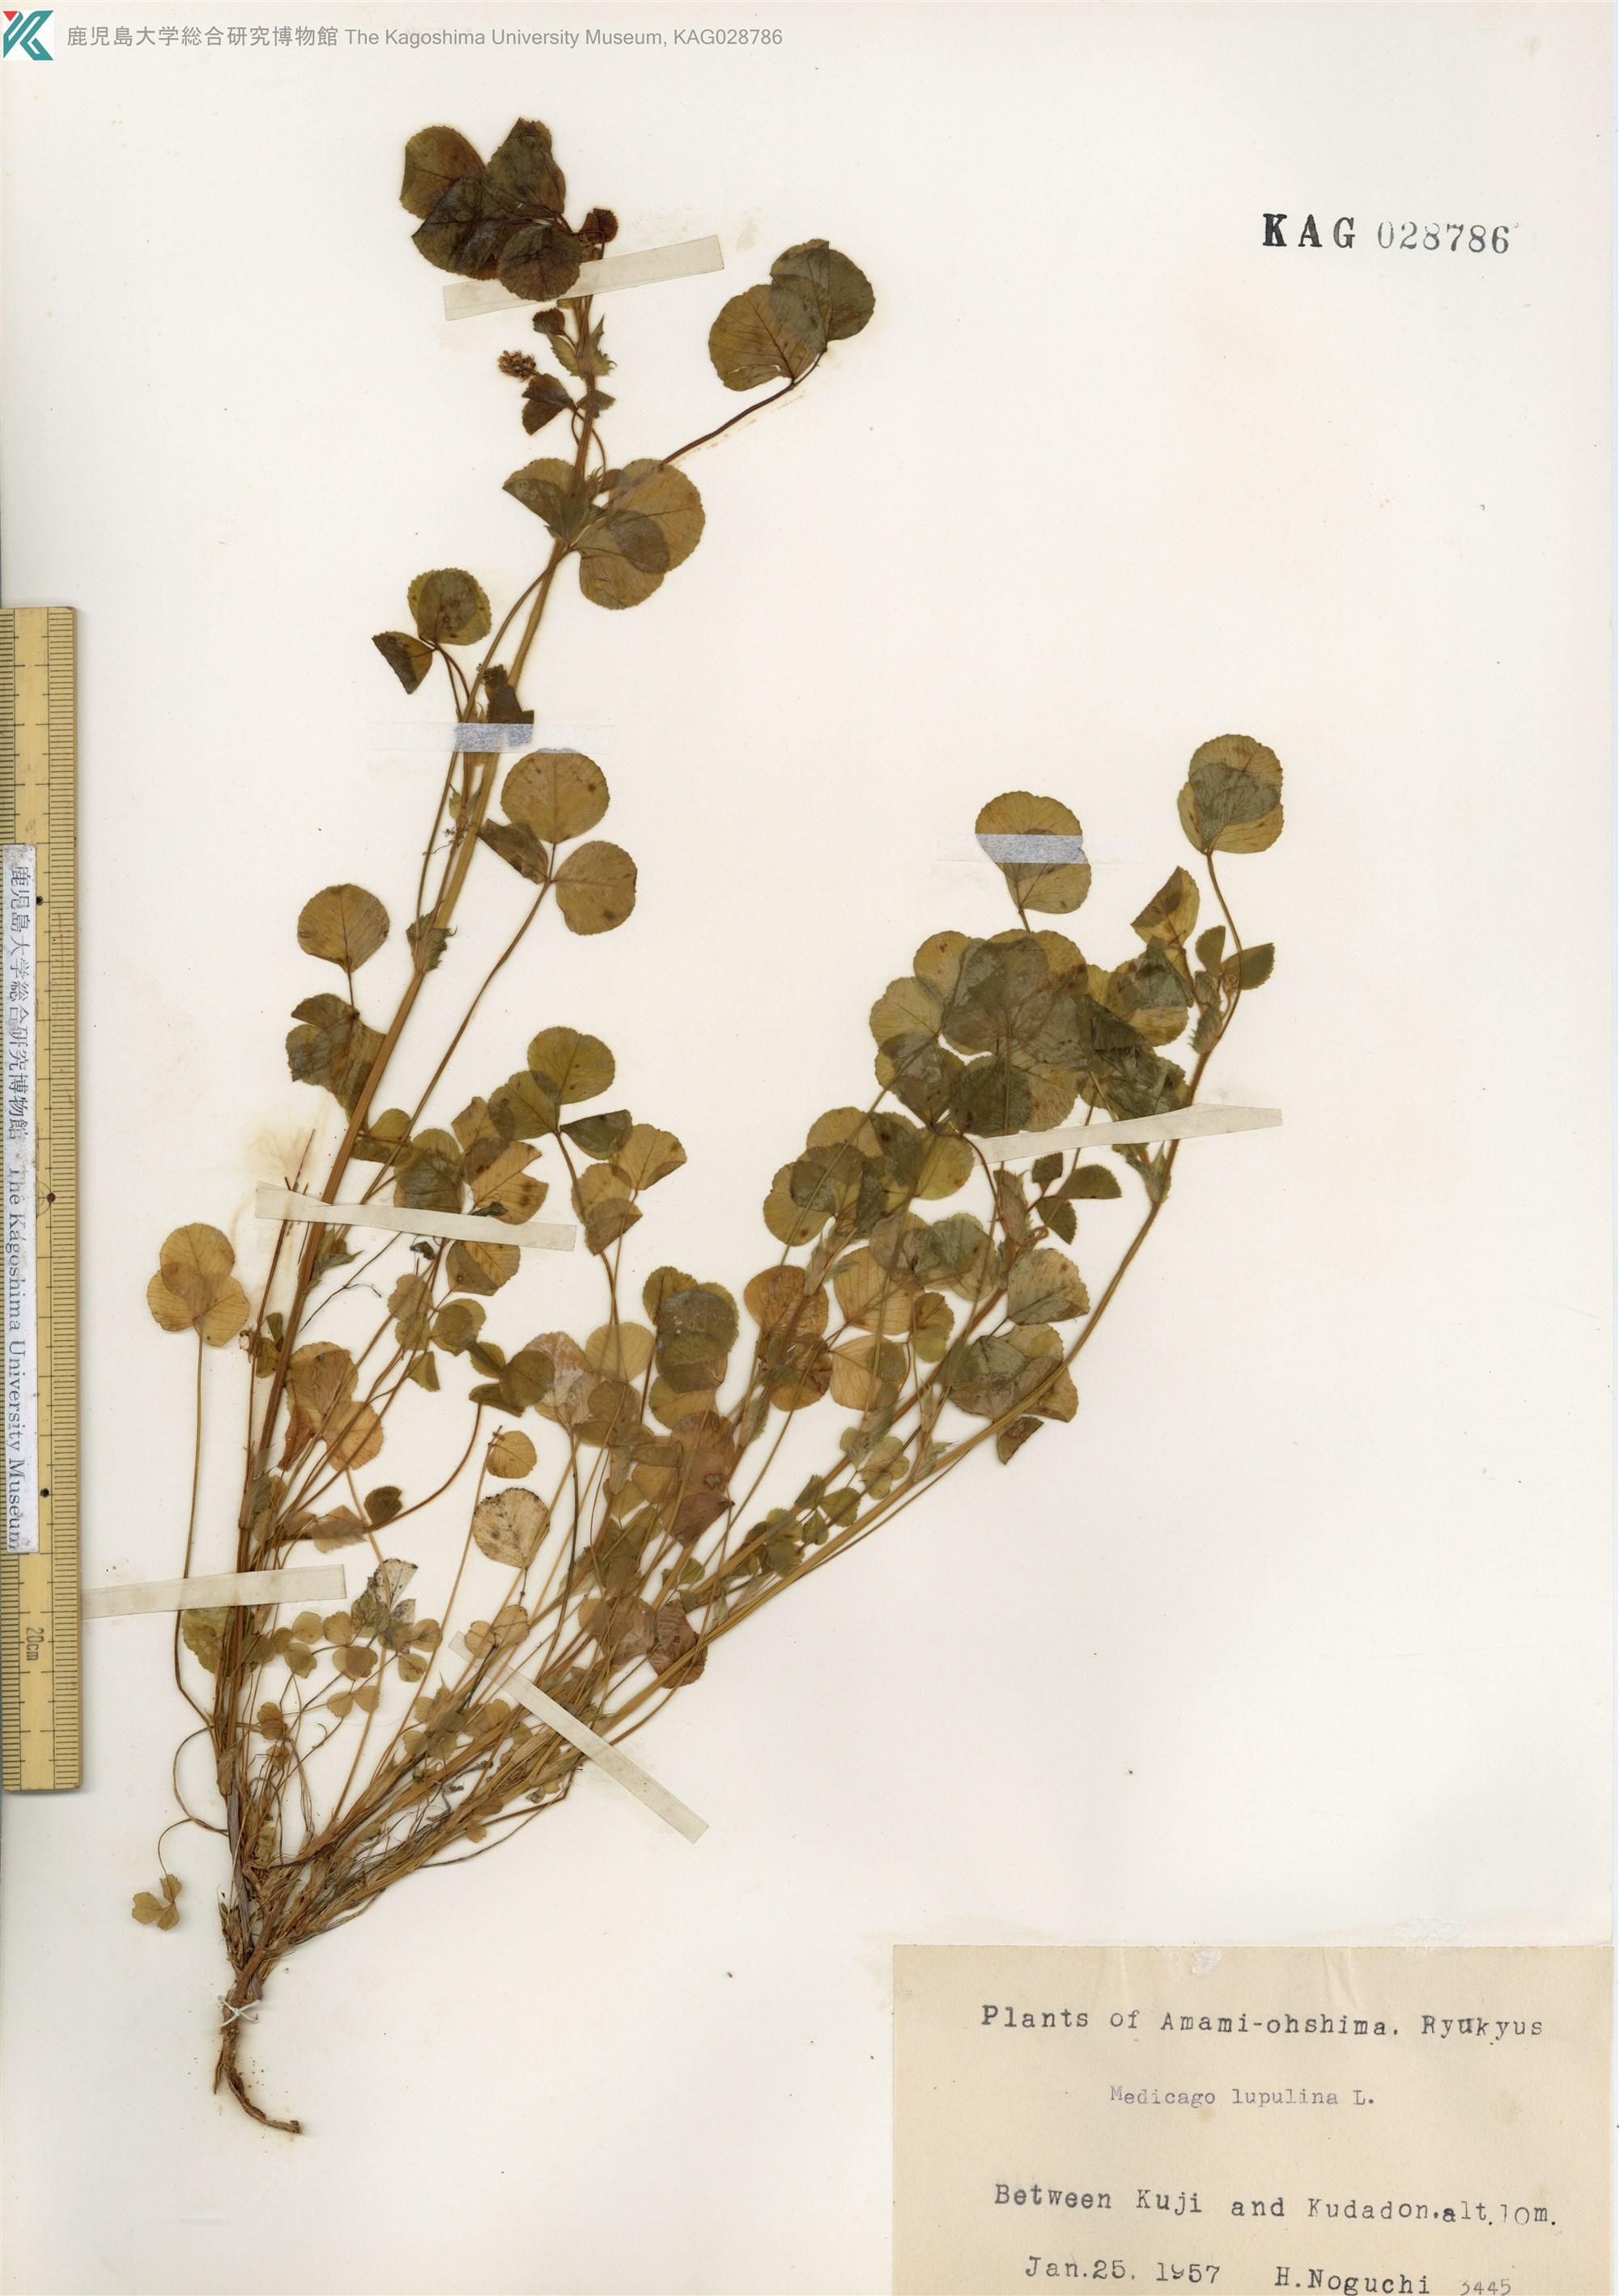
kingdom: Plantae
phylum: Tracheophyta
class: Magnoliopsida
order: Fabales
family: Fabaceae
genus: Medicago
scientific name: Medicago lupulina
